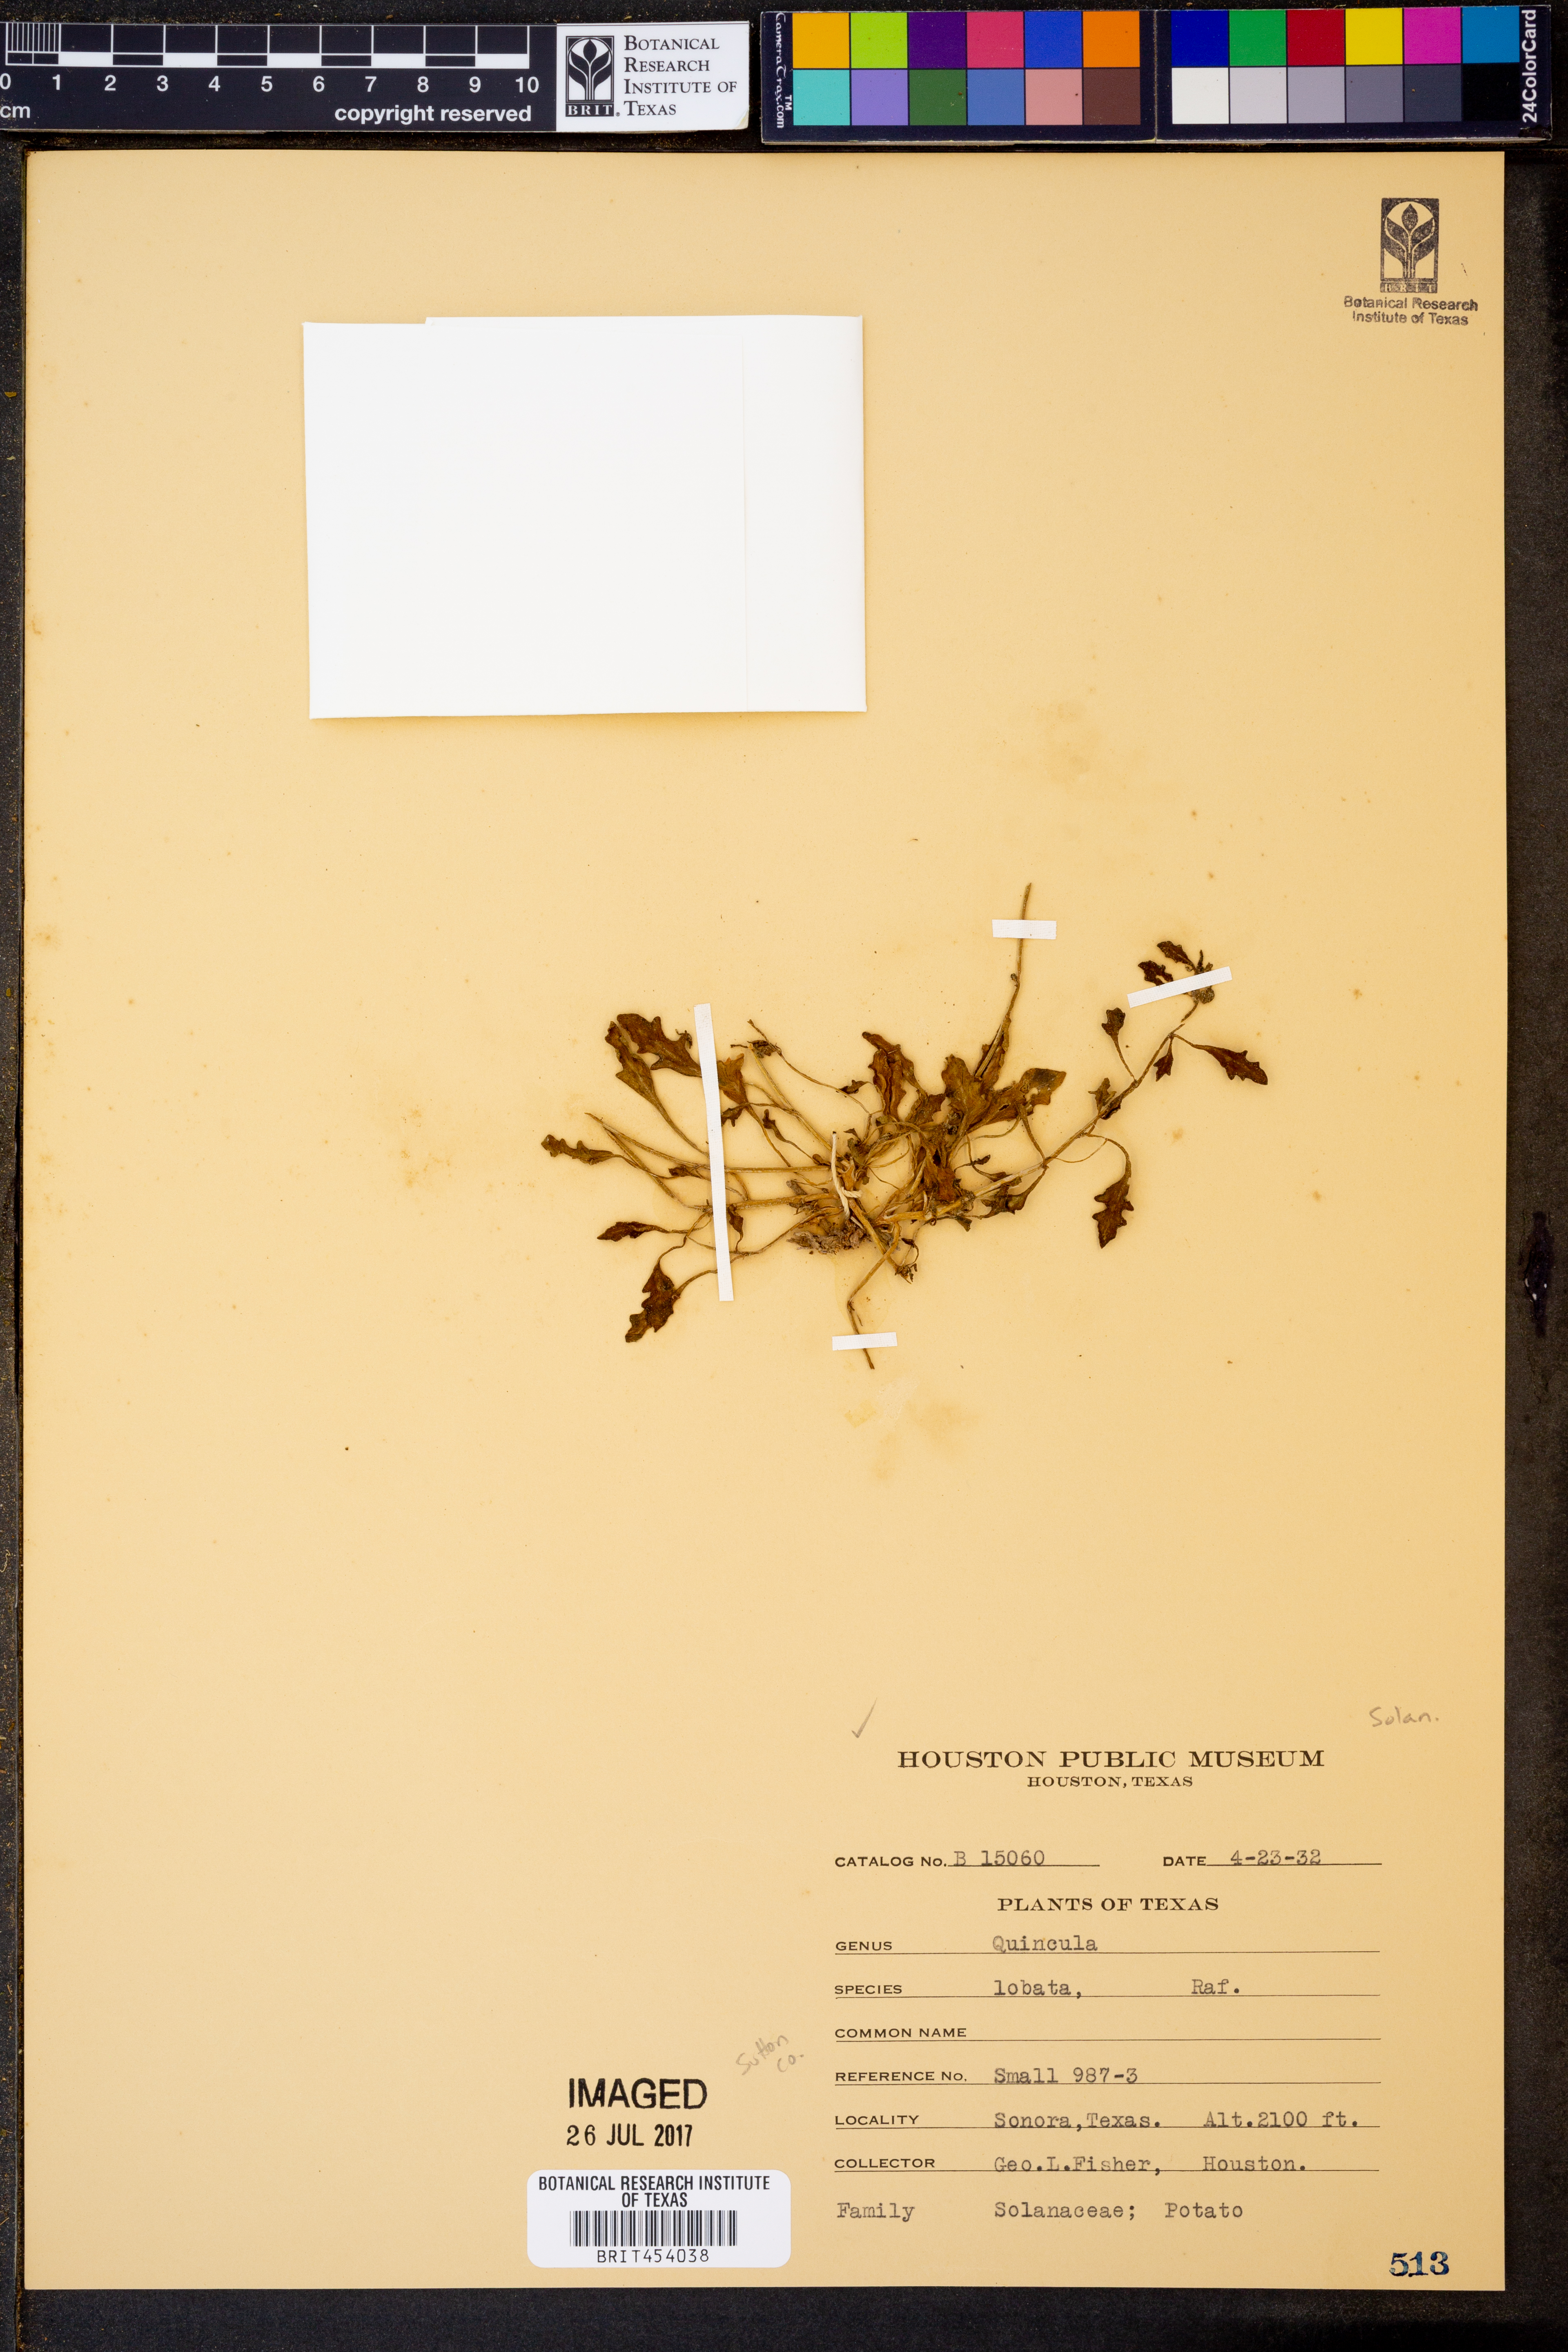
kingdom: Plantae
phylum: Tracheophyta
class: Magnoliopsida
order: Solanales
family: Solanaceae
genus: Quincula
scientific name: Quincula lobata
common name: Purple-ground-cherry
